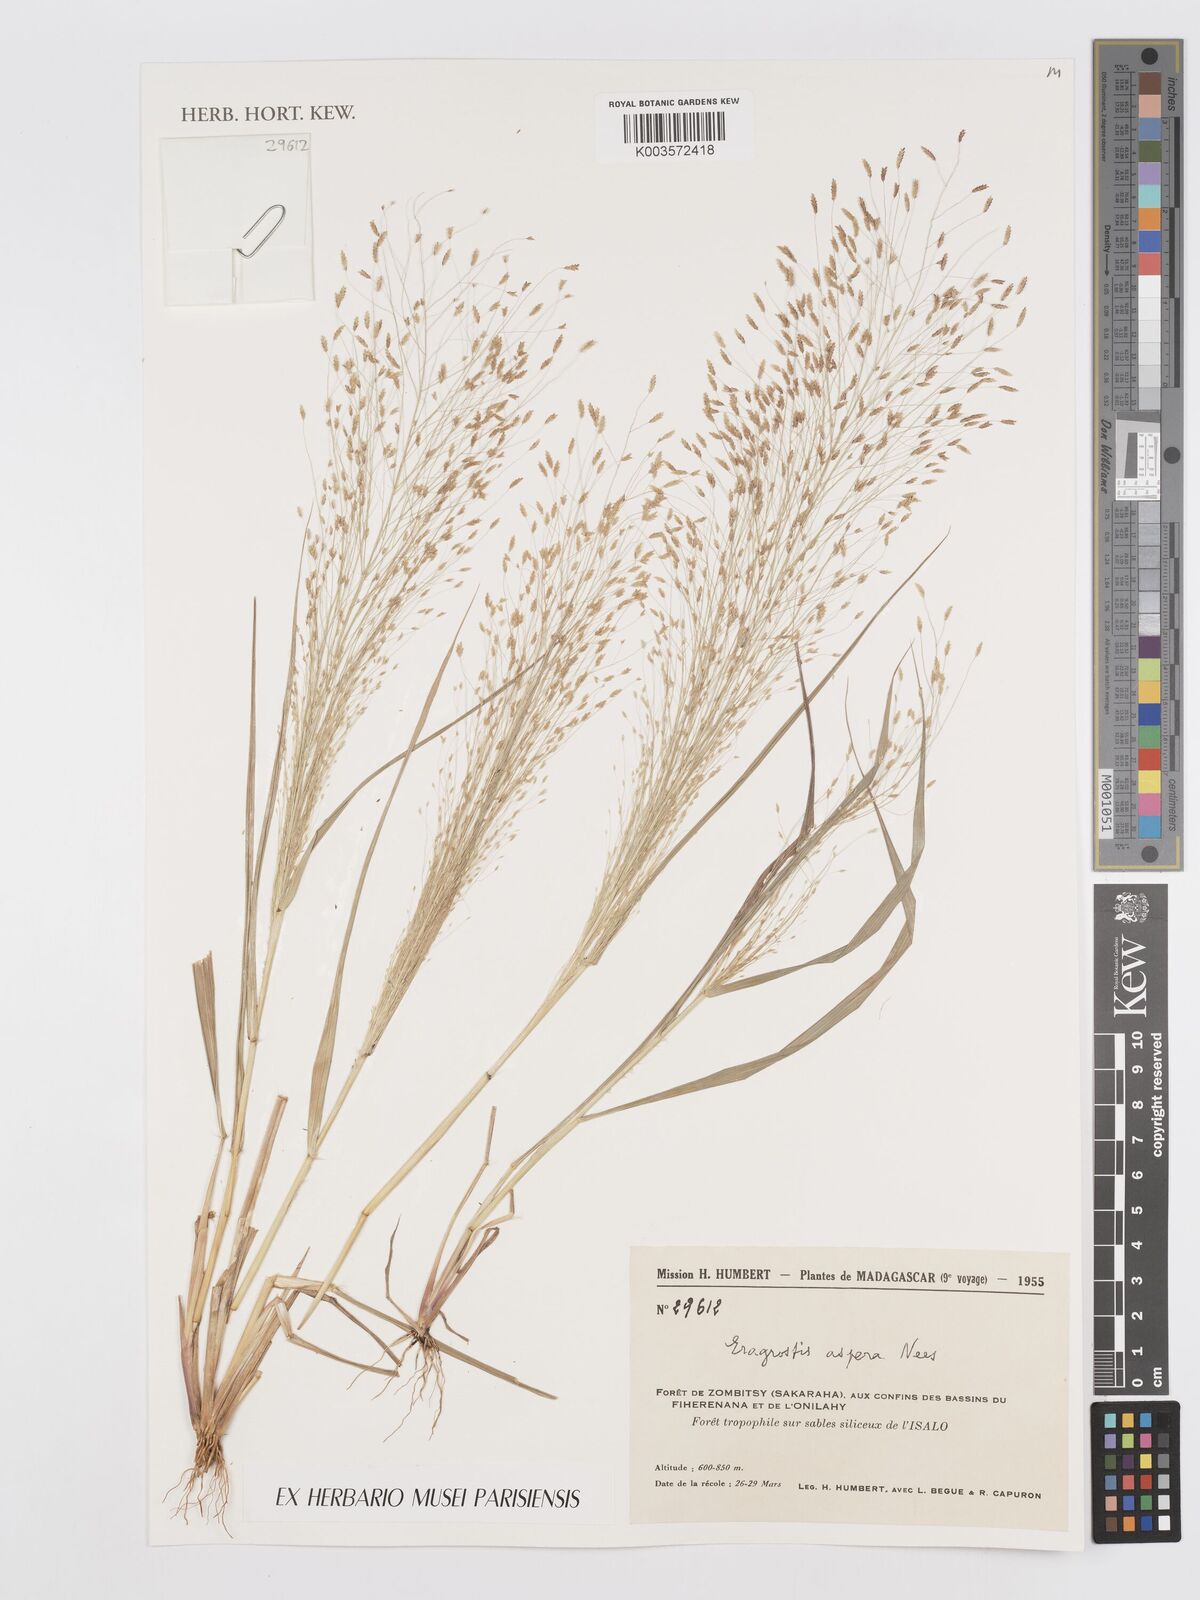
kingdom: Plantae
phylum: Tracheophyta
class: Liliopsida
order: Poales
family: Poaceae
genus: Eragrostis
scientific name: Eragrostis aspera
